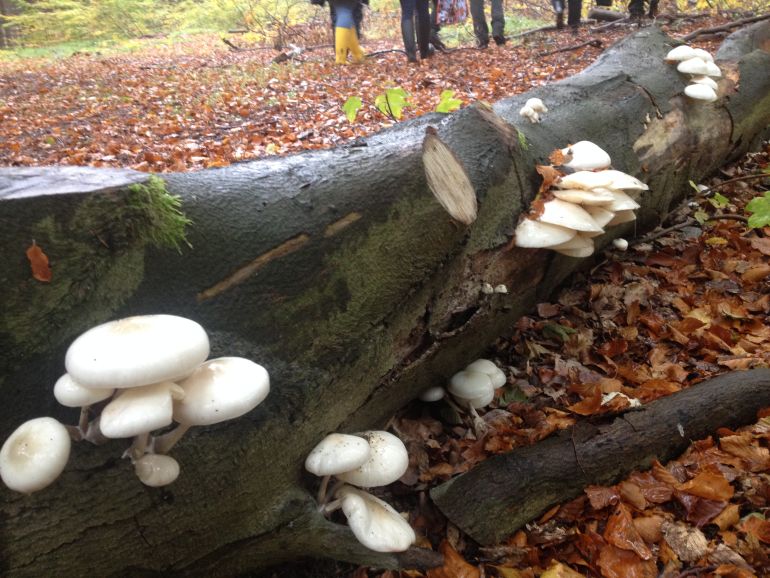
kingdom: Fungi
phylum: Basidiomycota
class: Agaricomycetes
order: Agaricales
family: Physalacriaceae
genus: Mucidula
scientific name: Mucidula mucida
